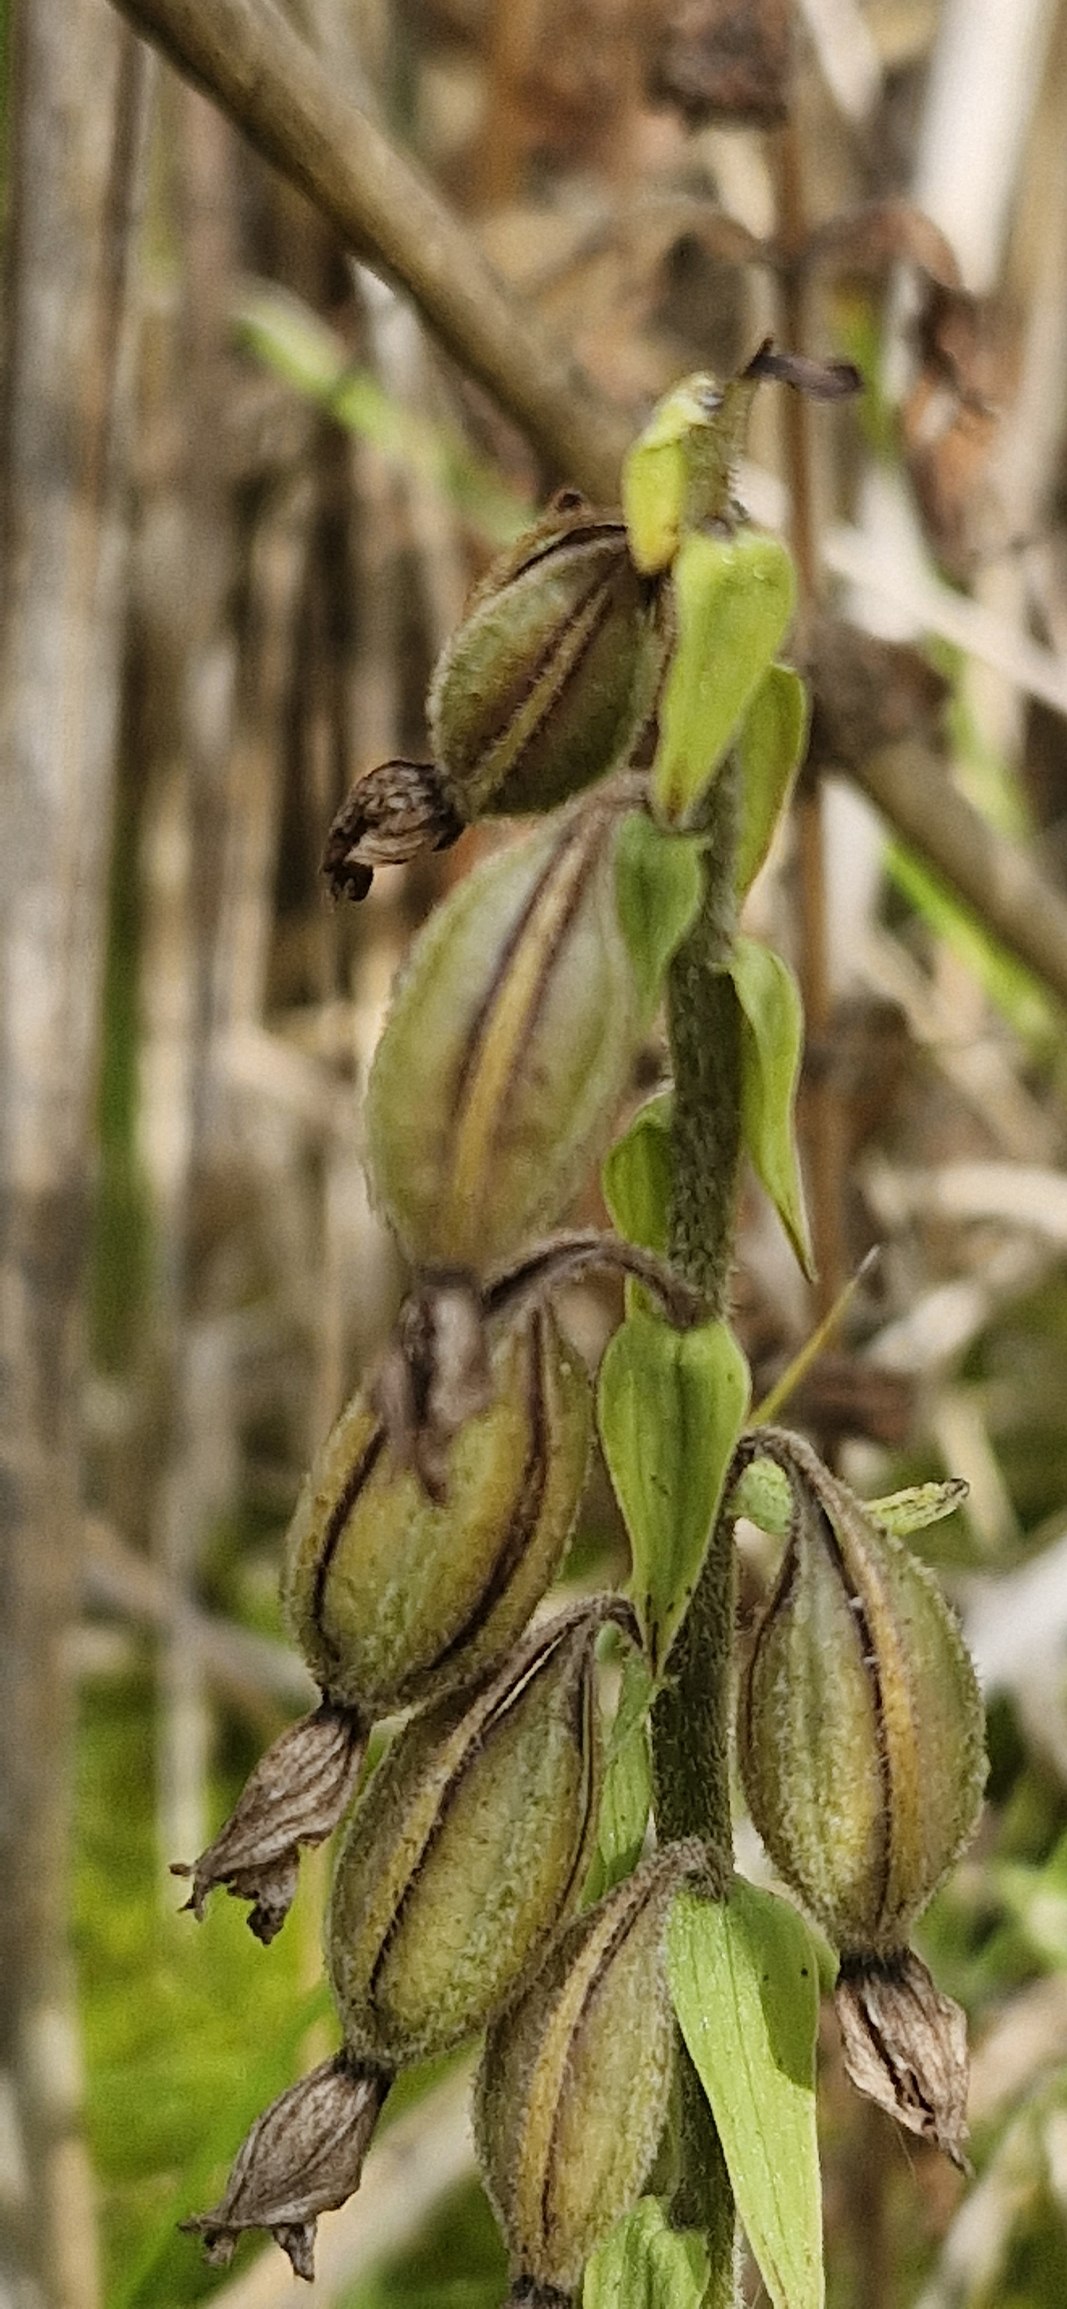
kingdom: Plantae
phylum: Tracheophyta
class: Liliopsida
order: Asparagales
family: Orchidaceae
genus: Epipactis
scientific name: Epipactis palustris
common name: Sump-hullæbe
